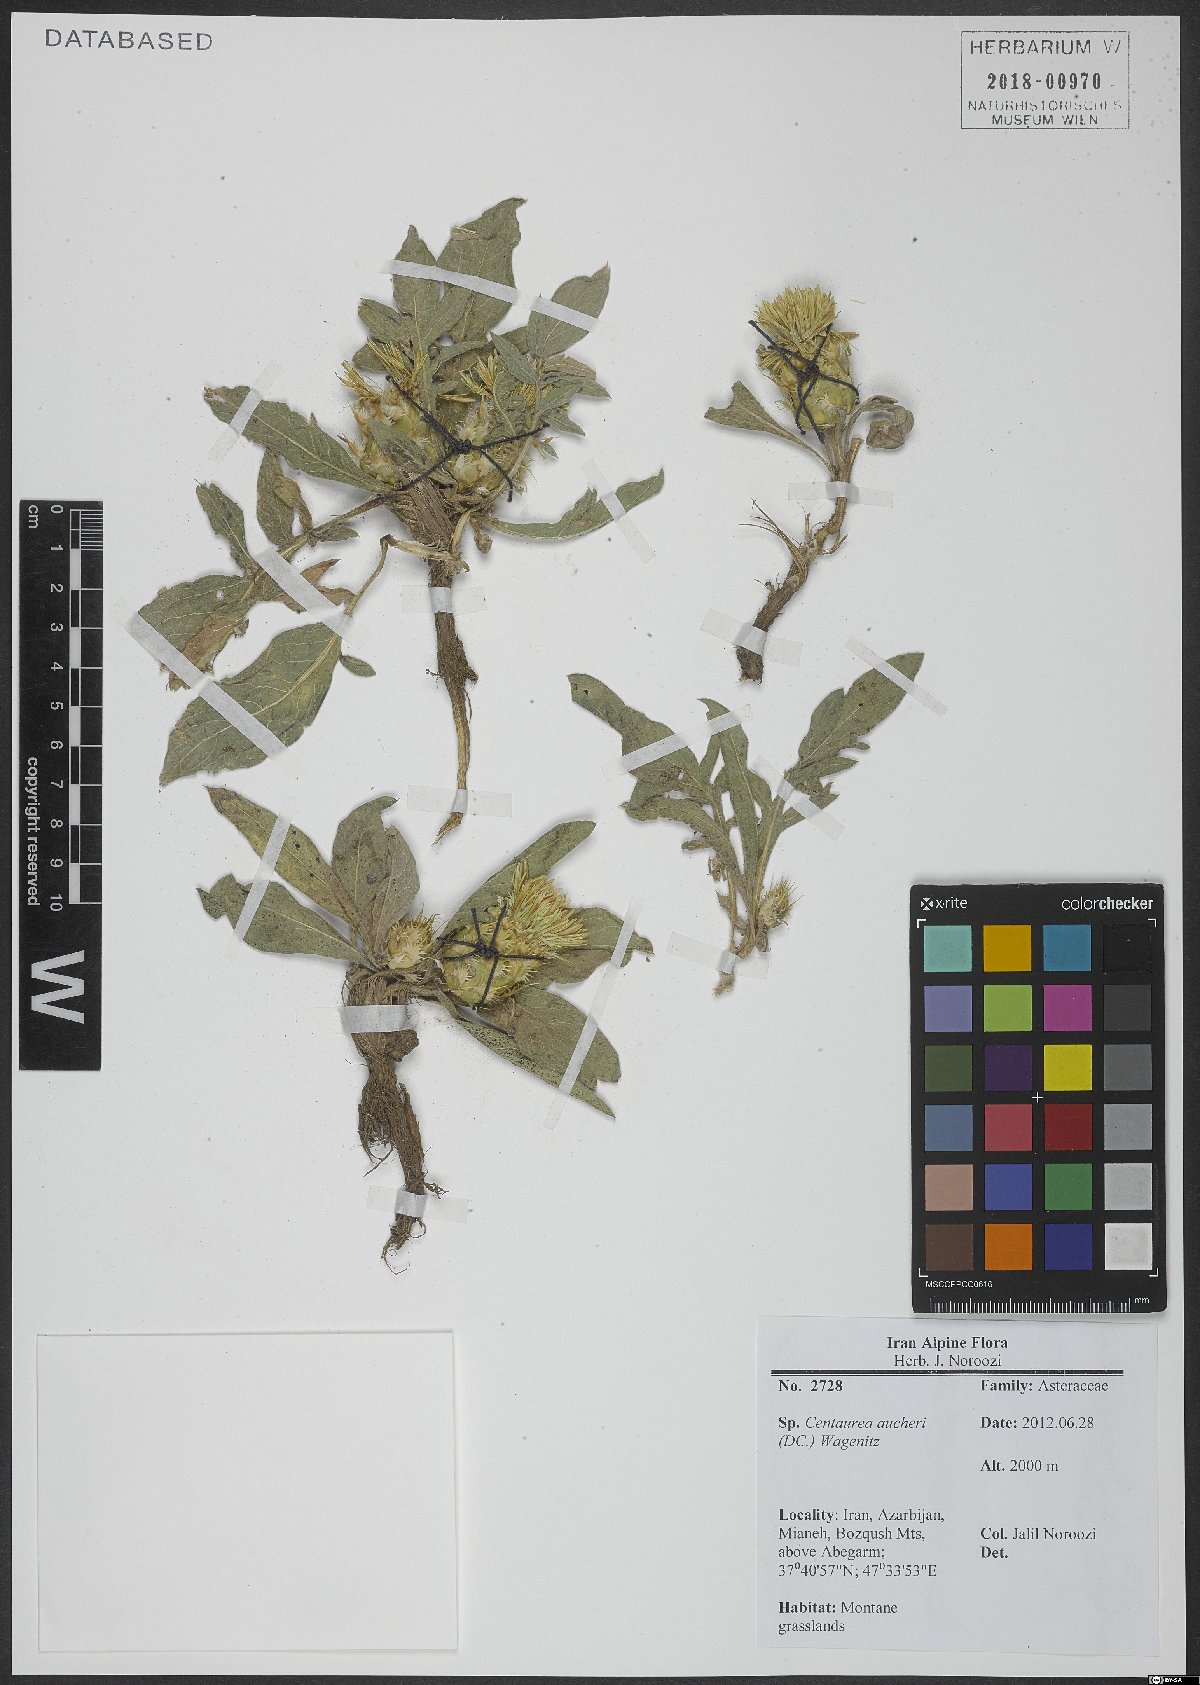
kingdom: Plantae
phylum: Tracheophyta
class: Magnoliopsida
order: Asterales
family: Asteraceae
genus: Centaurea
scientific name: Centaurea aucheri
